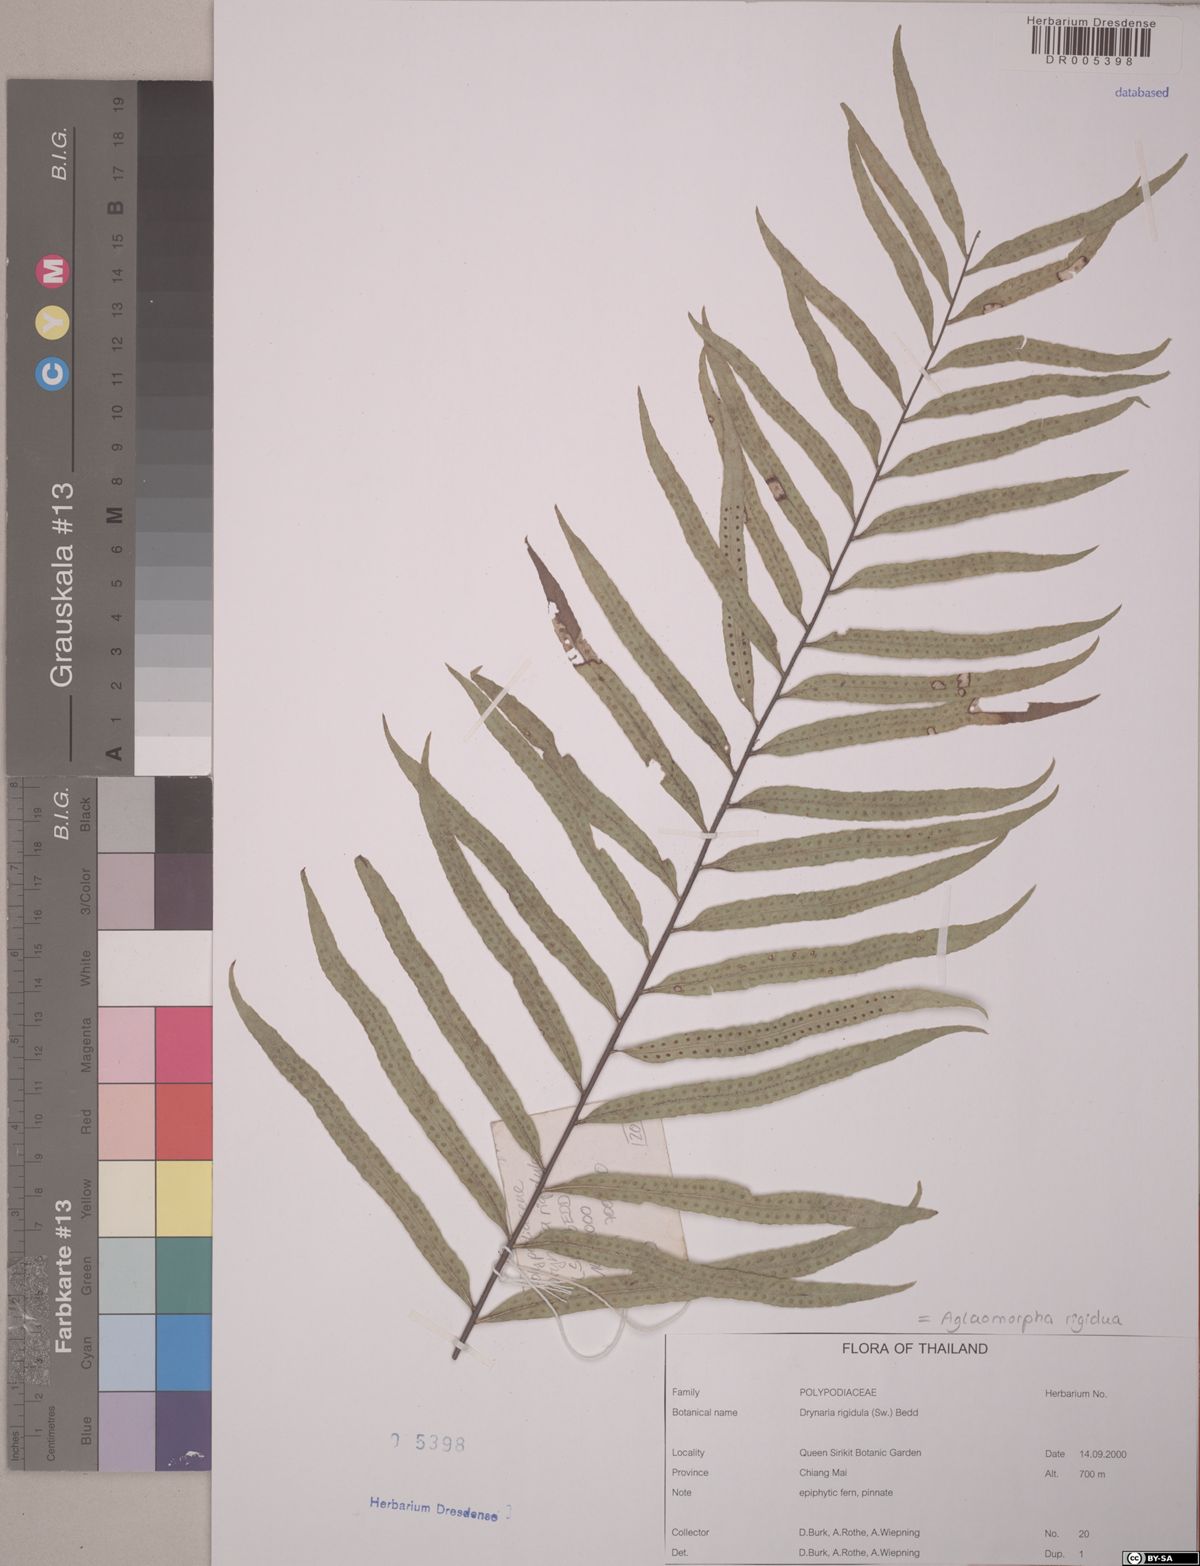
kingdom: Plantae
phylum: Tracheophyta
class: Polypodiopsida
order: Polypodiales
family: Polypodiaceae
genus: Drynaria
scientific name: Drynaria rigidula
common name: Basket fern
